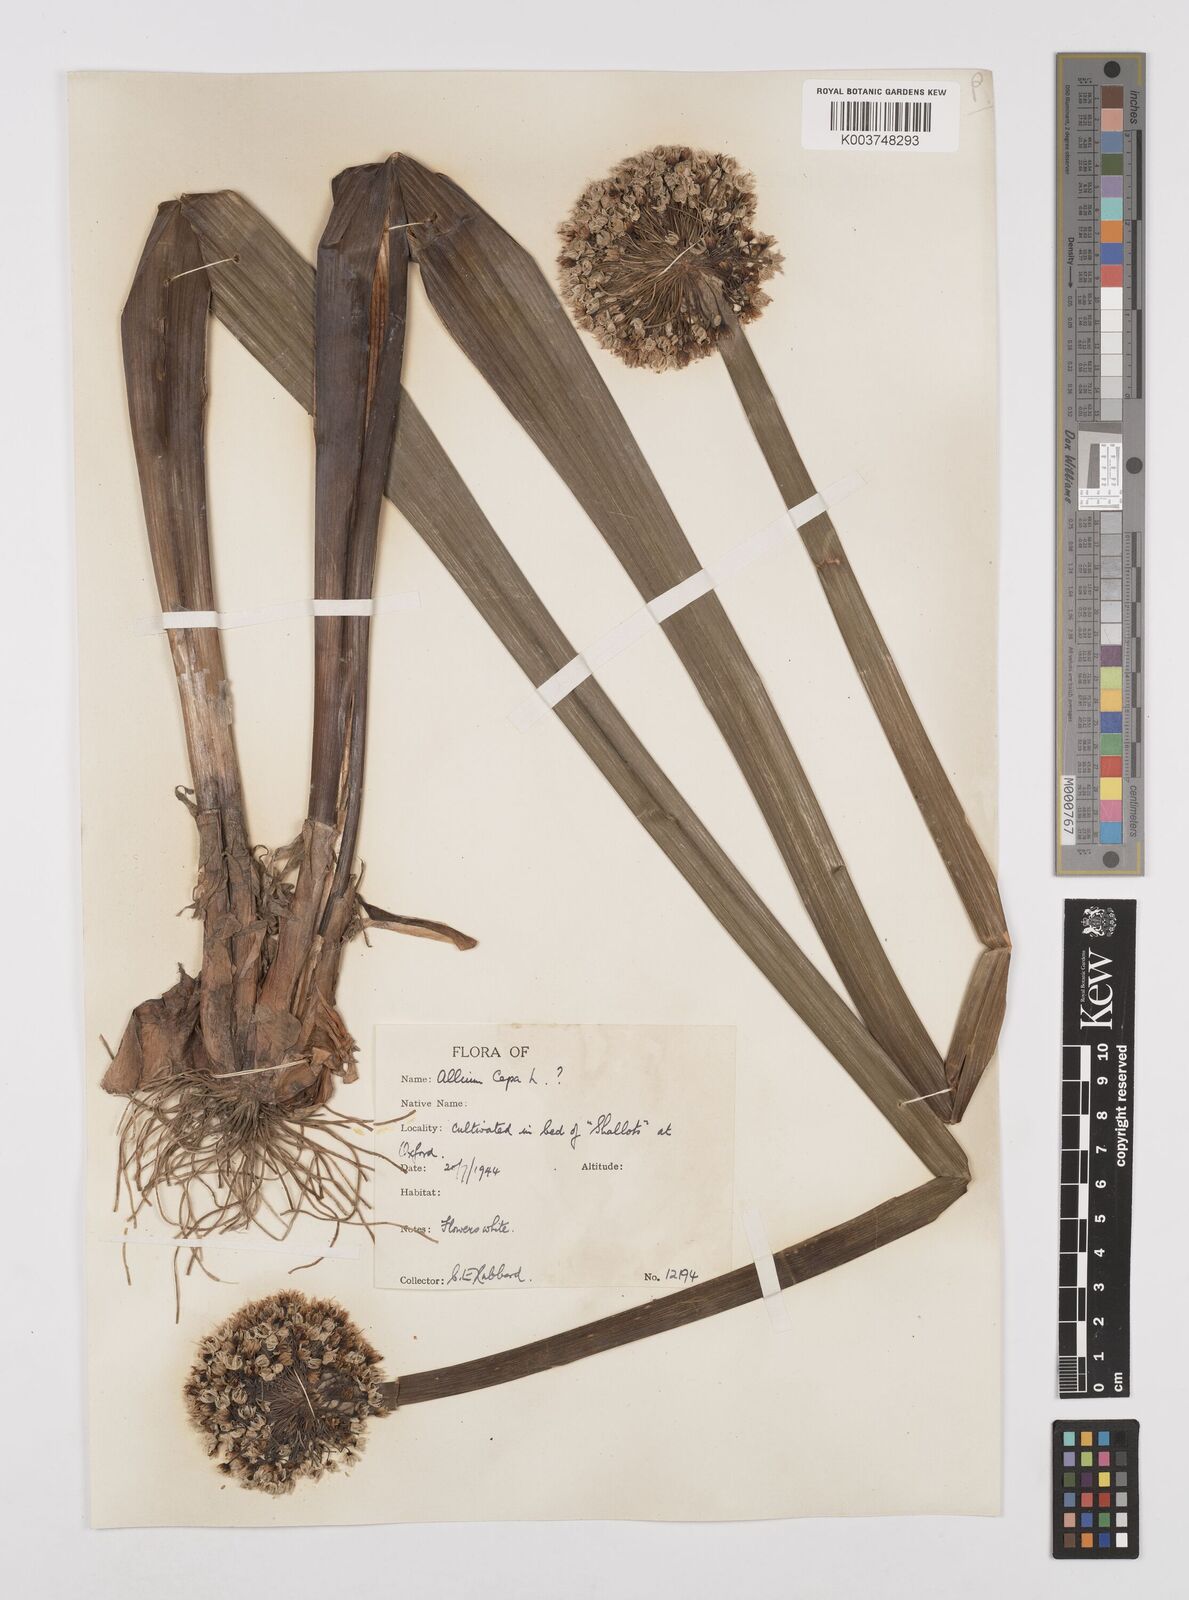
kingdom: Plantae
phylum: Tracheophyta
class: Liliopsida
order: Asparagales
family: Amaryllidaceae
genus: Allium
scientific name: Allium cepa
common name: Onion
